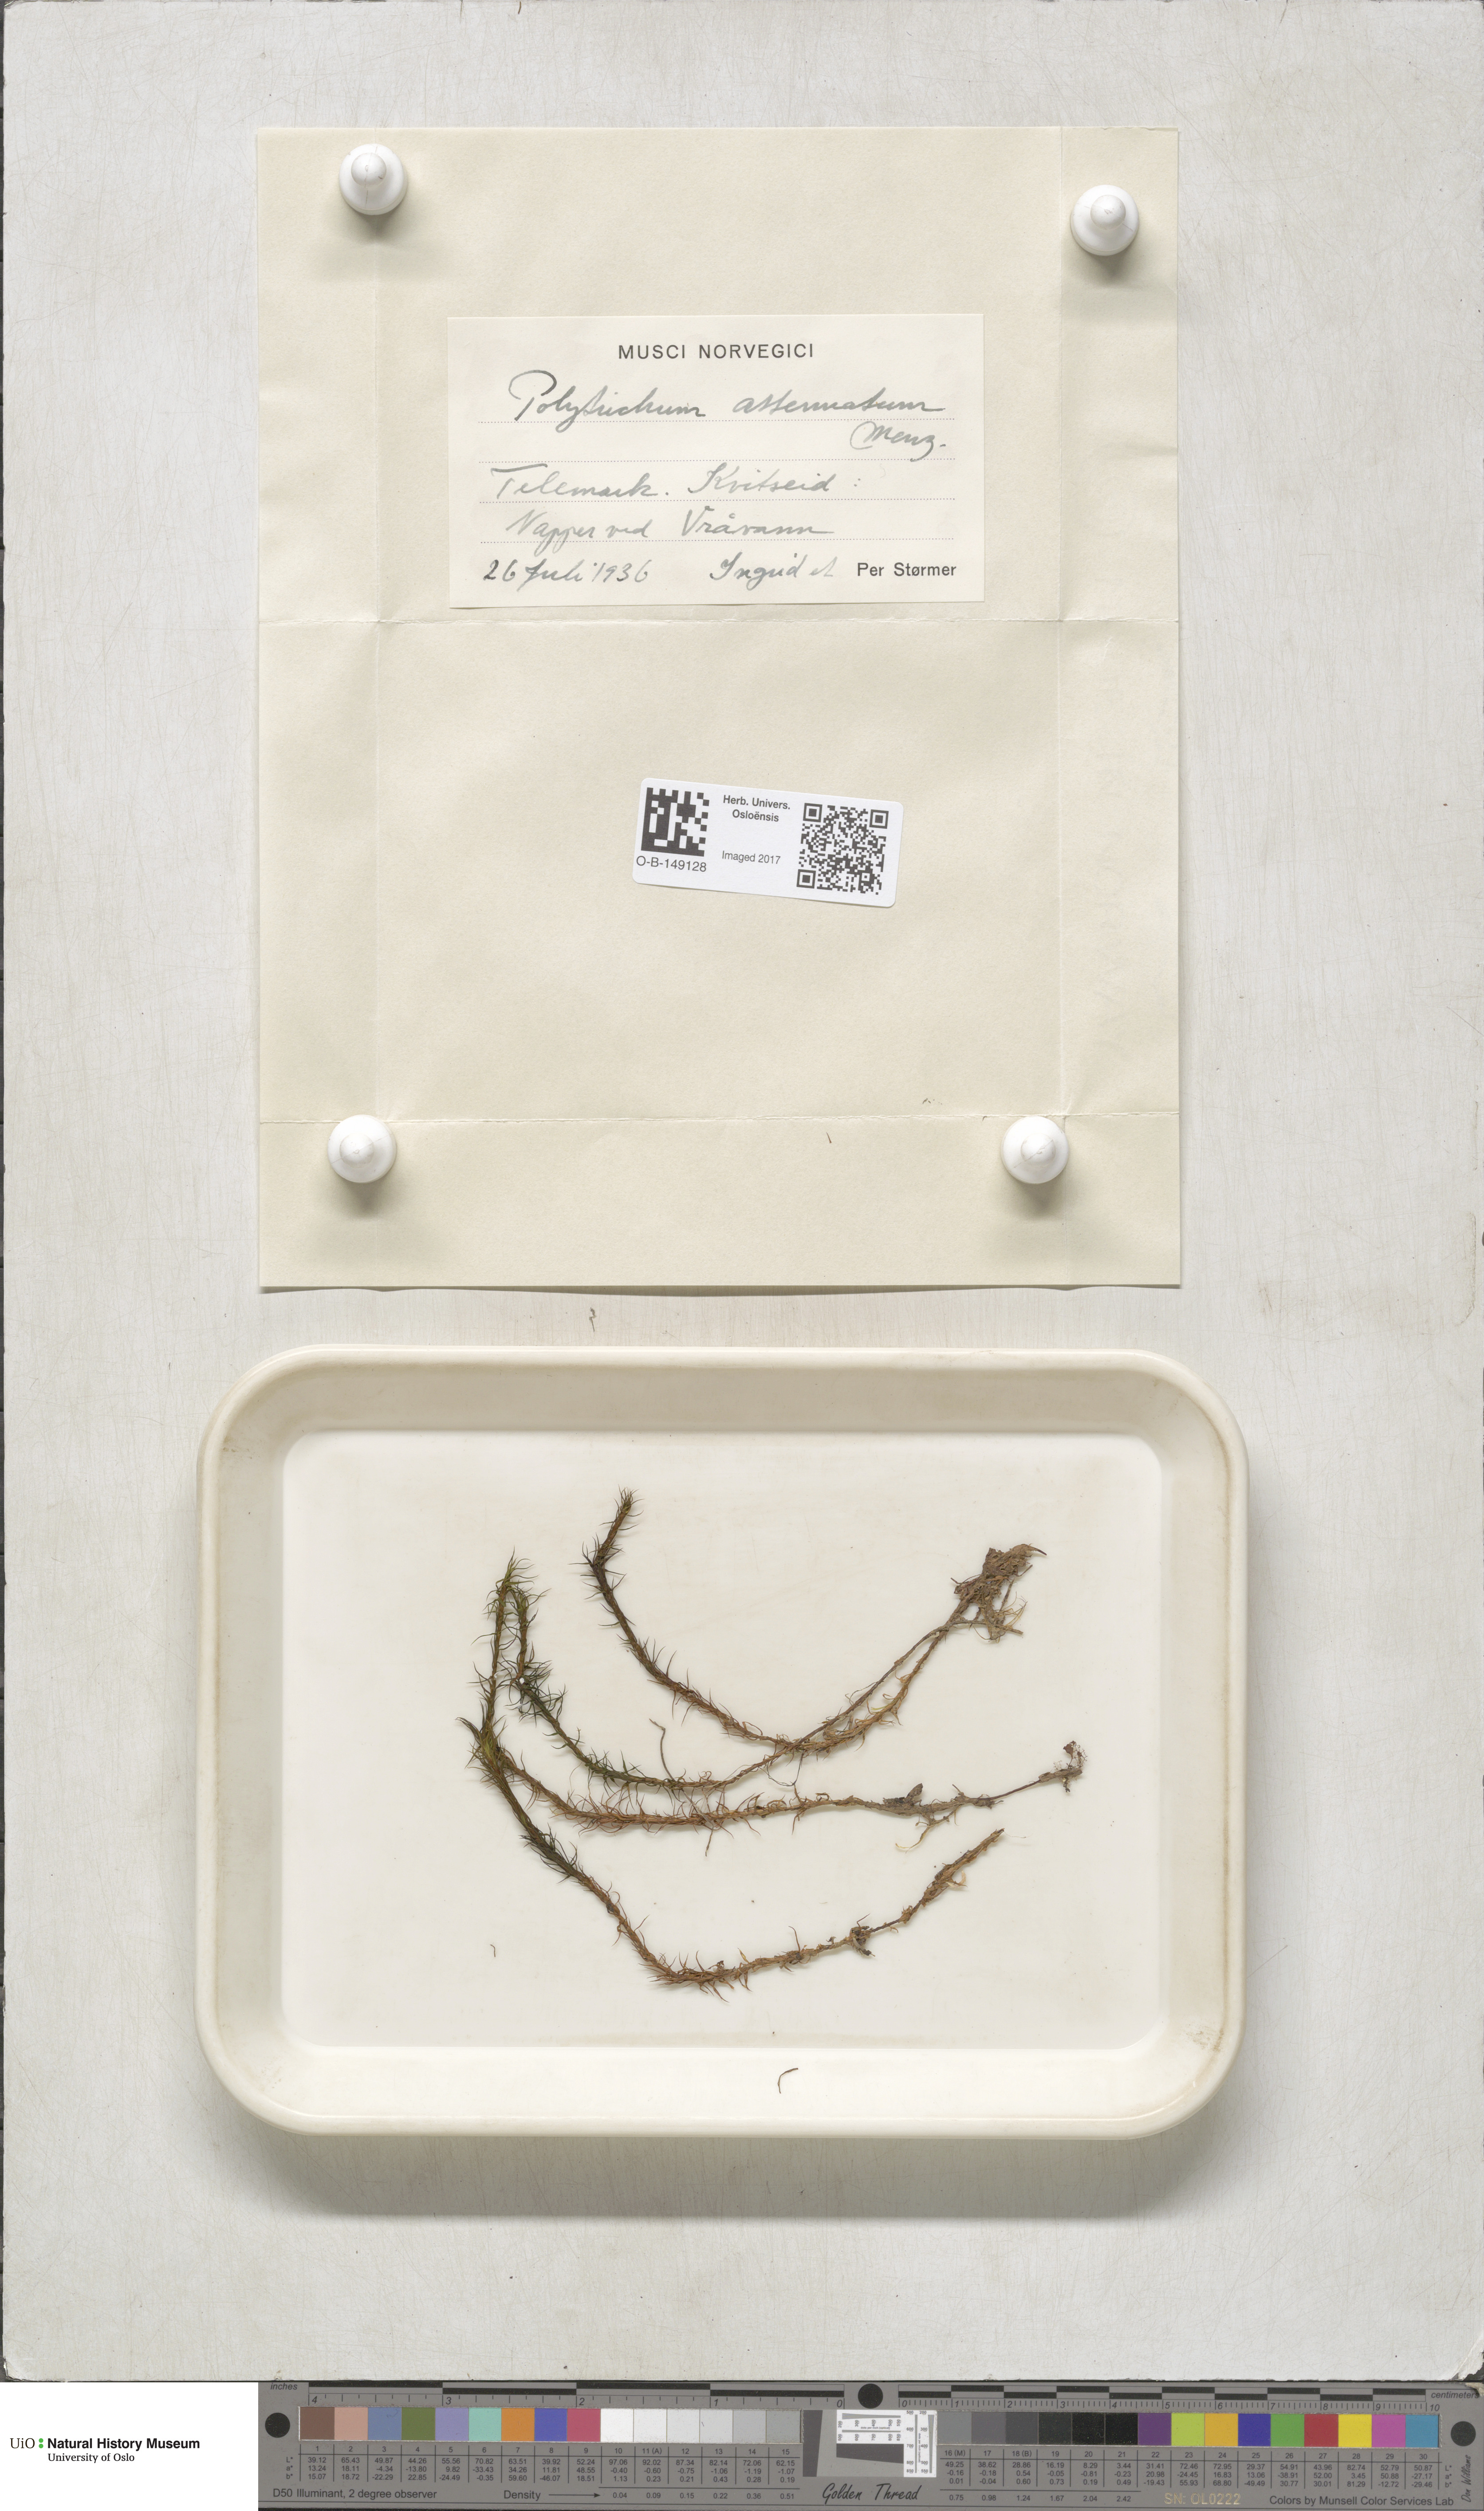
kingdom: Plantae
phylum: Bryophyta
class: Polytrichopsida
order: Polytrichales
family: Polytrichaceae
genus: Polytrichum
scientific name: Polytrichum formosum
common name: Bank haircap moss
